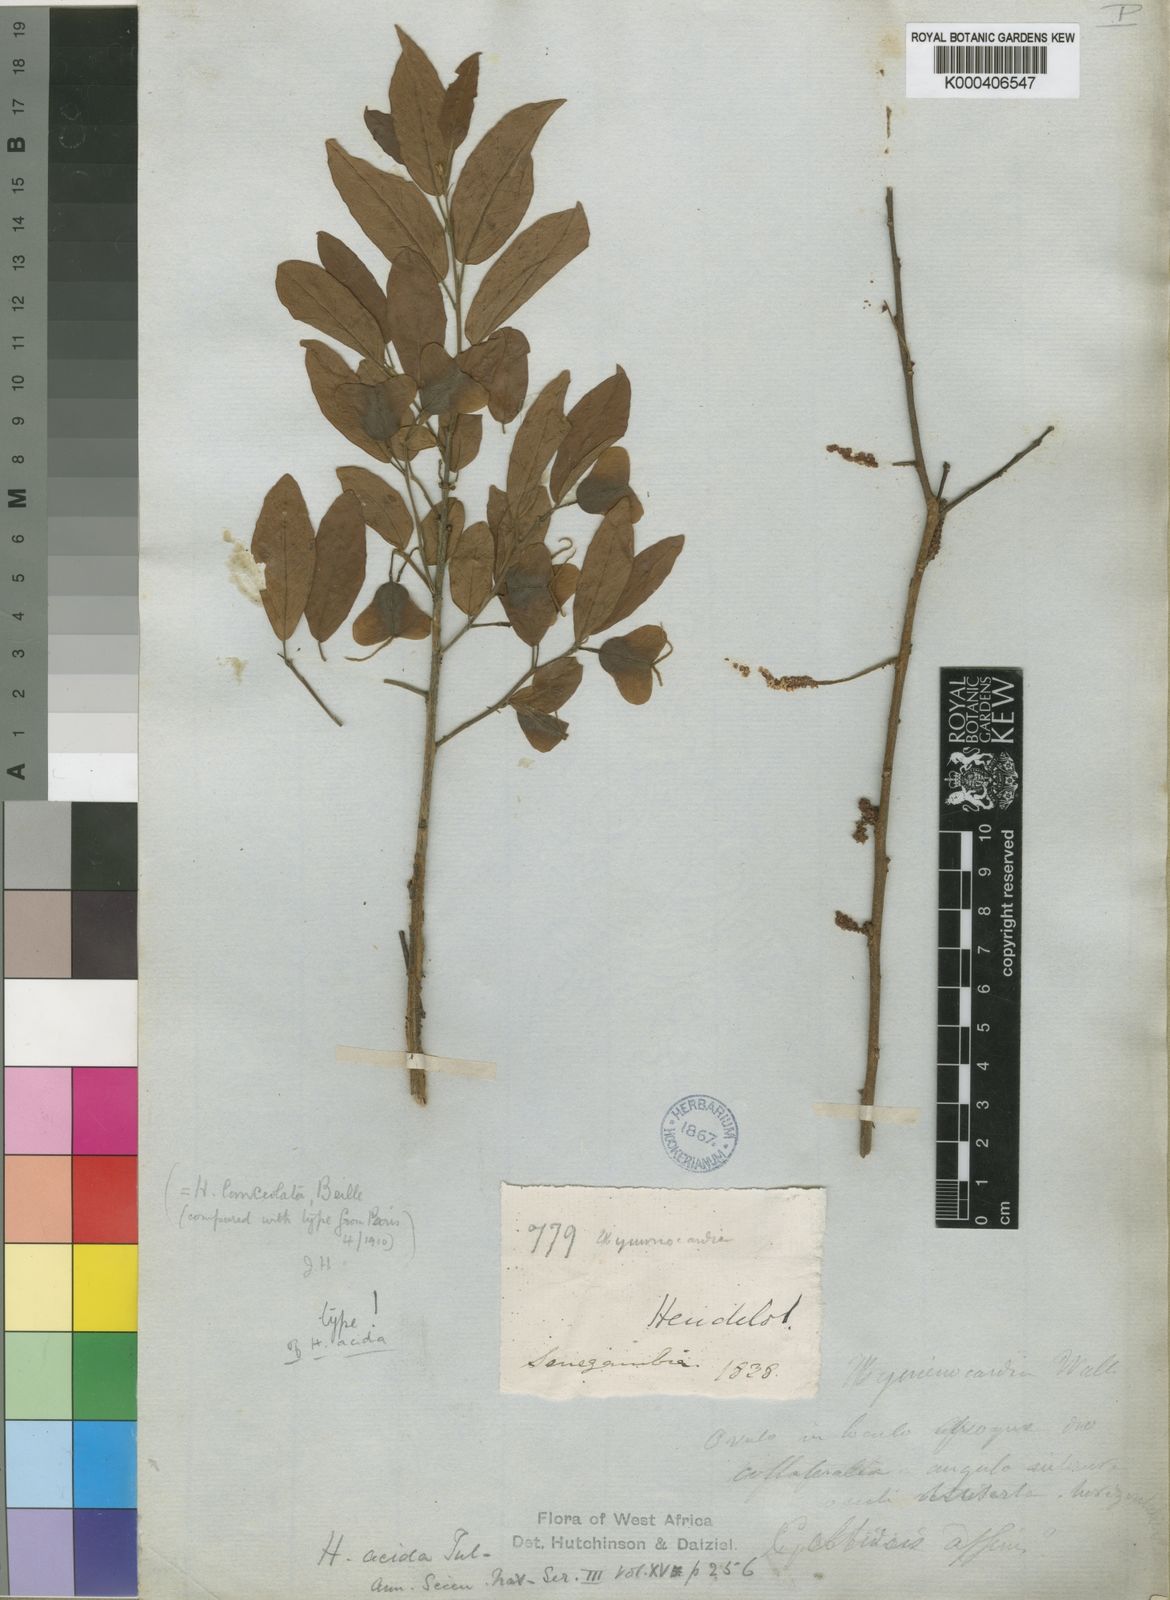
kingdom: Plantae
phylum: Tracheophyta
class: Magnoliopsida
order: Malpighiales
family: Phyllanthaceae
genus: Hymenocardia
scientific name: Hymenocardia acida
